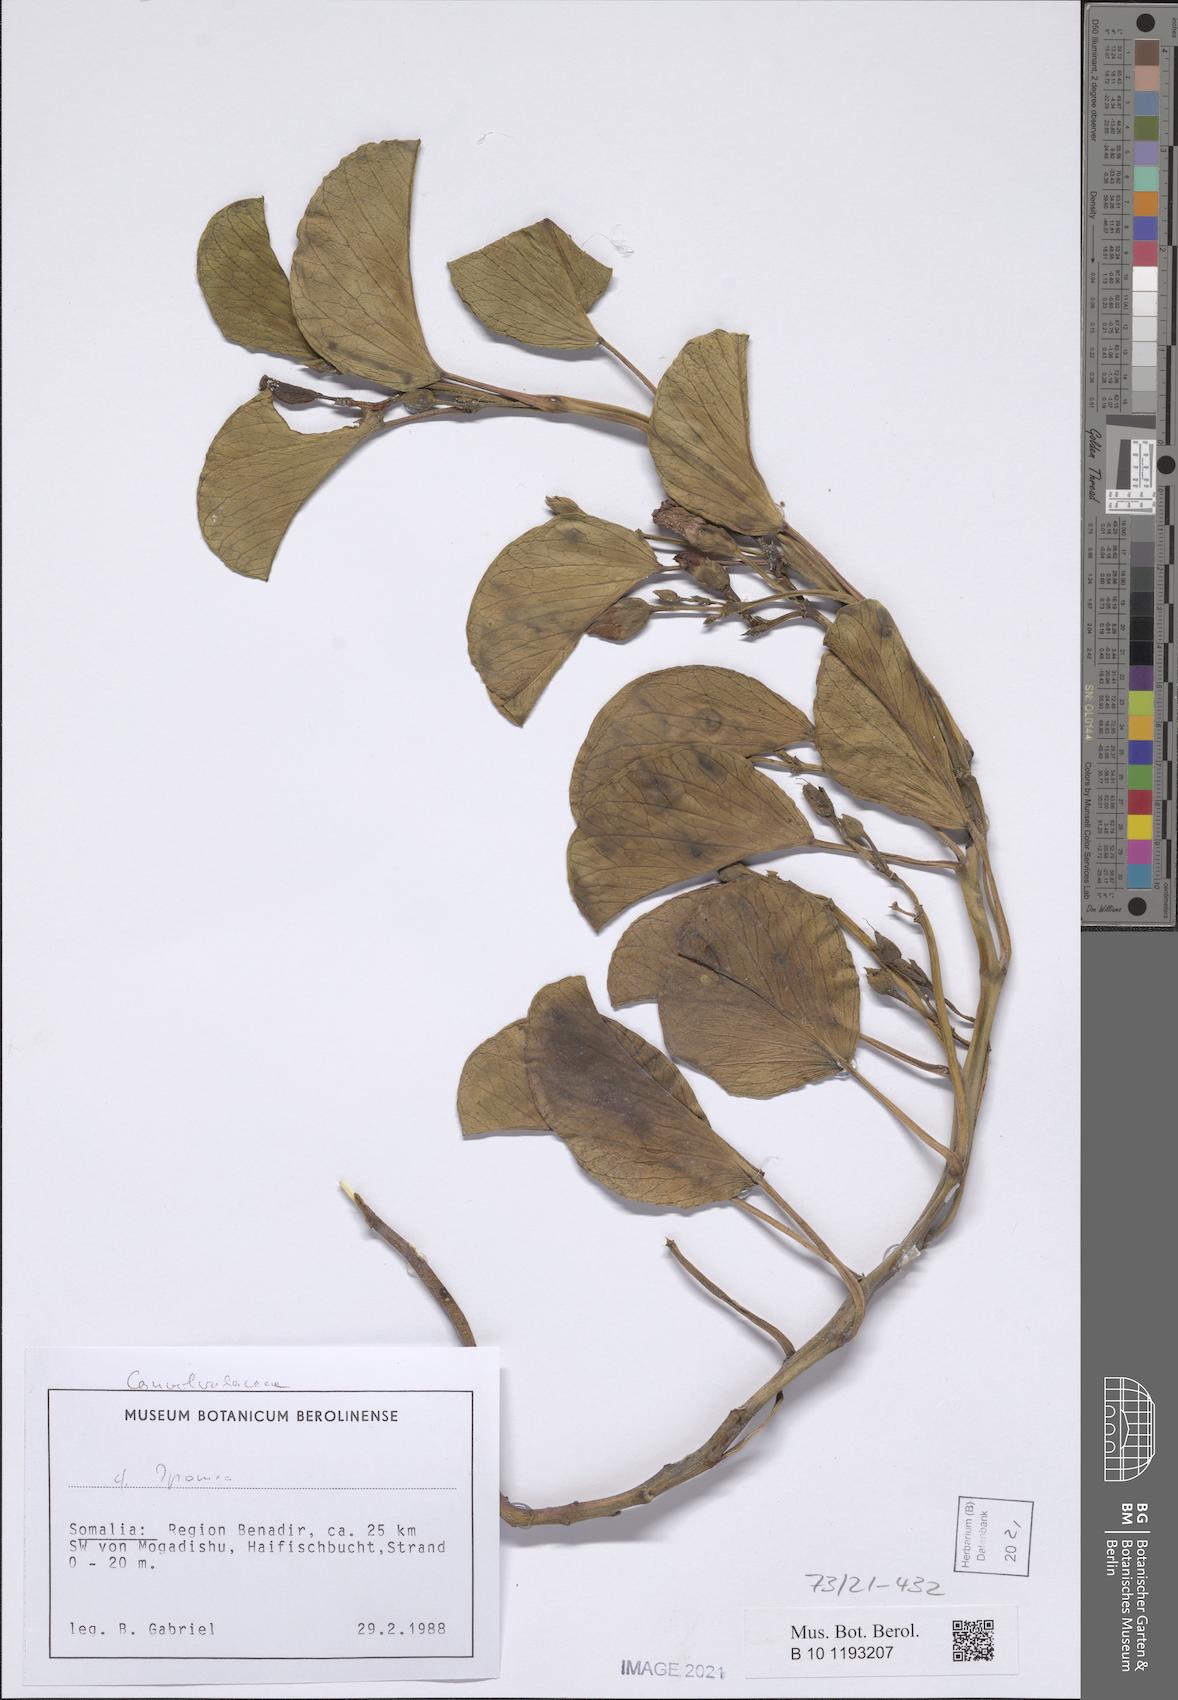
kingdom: Plantae
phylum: Tracheophyta
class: Magnoliopsida
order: Solanales
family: Convolvulaceae
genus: Ipomoea
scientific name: Ipomoea pes-caprae
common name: Beach morning glory
